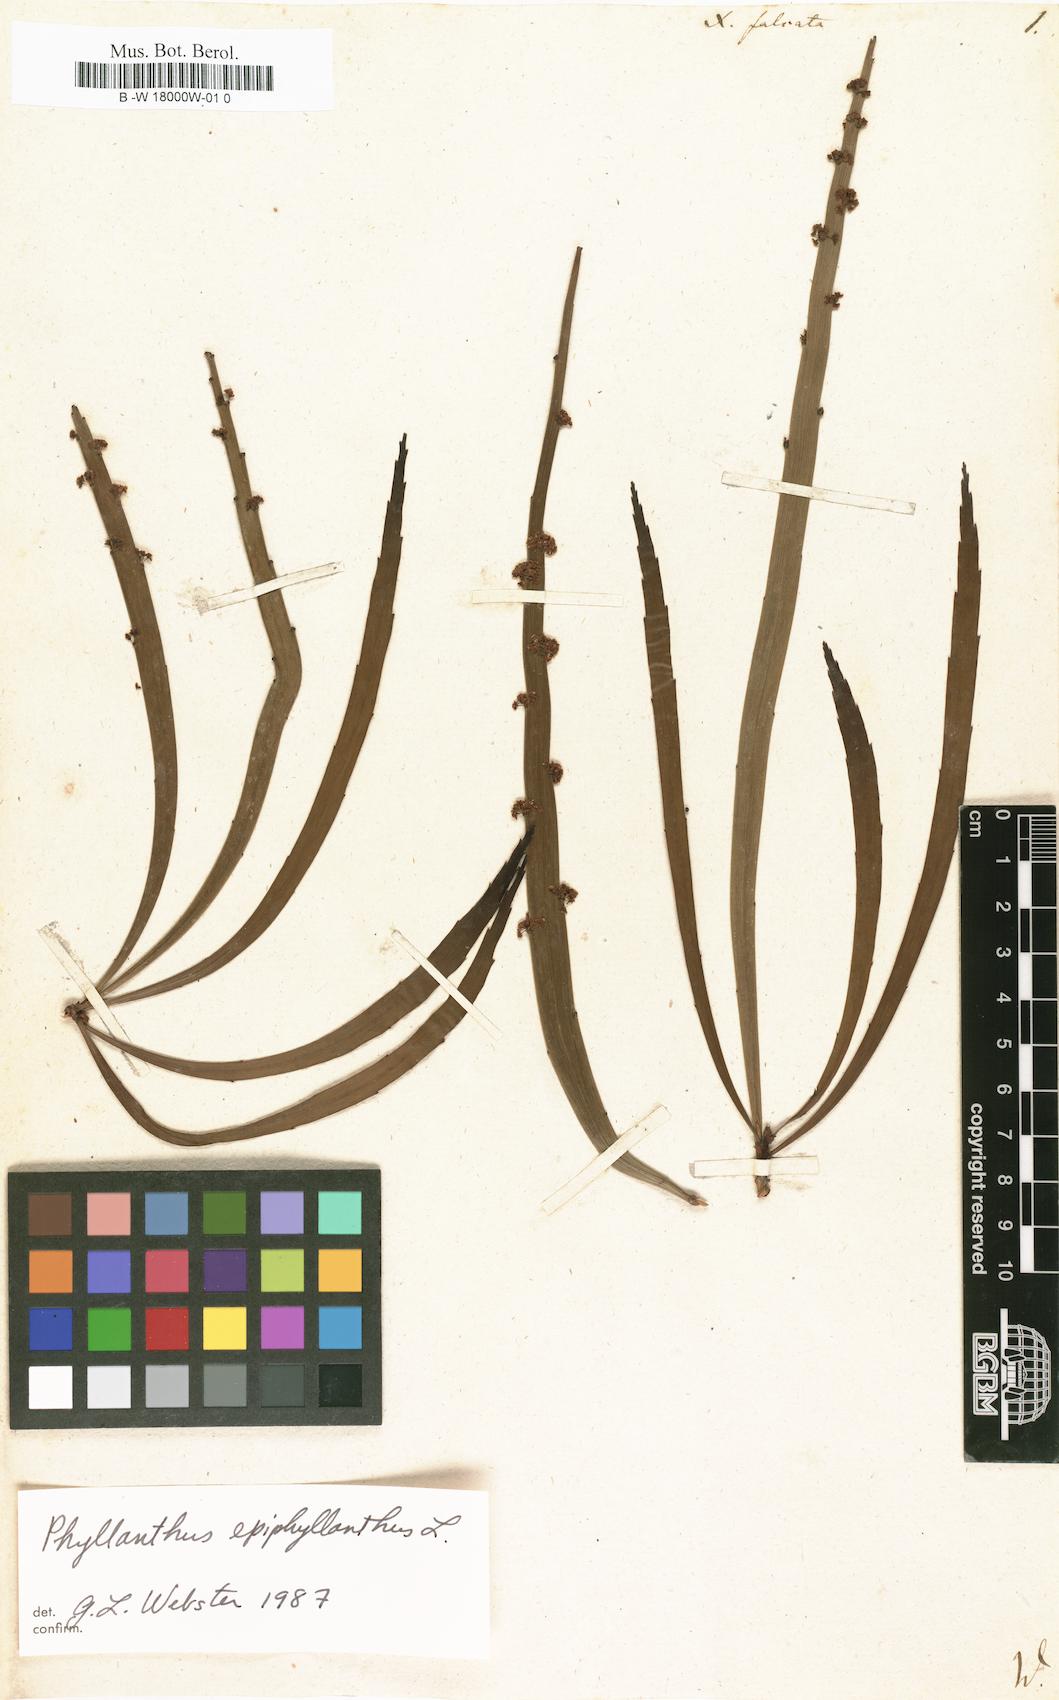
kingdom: Plantae
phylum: Tracheophyta
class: Magnoliopsida
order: Malpighiales
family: Phyllanthaceae
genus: Phyllanthus
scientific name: Phyllanthus epiphyllanthus
